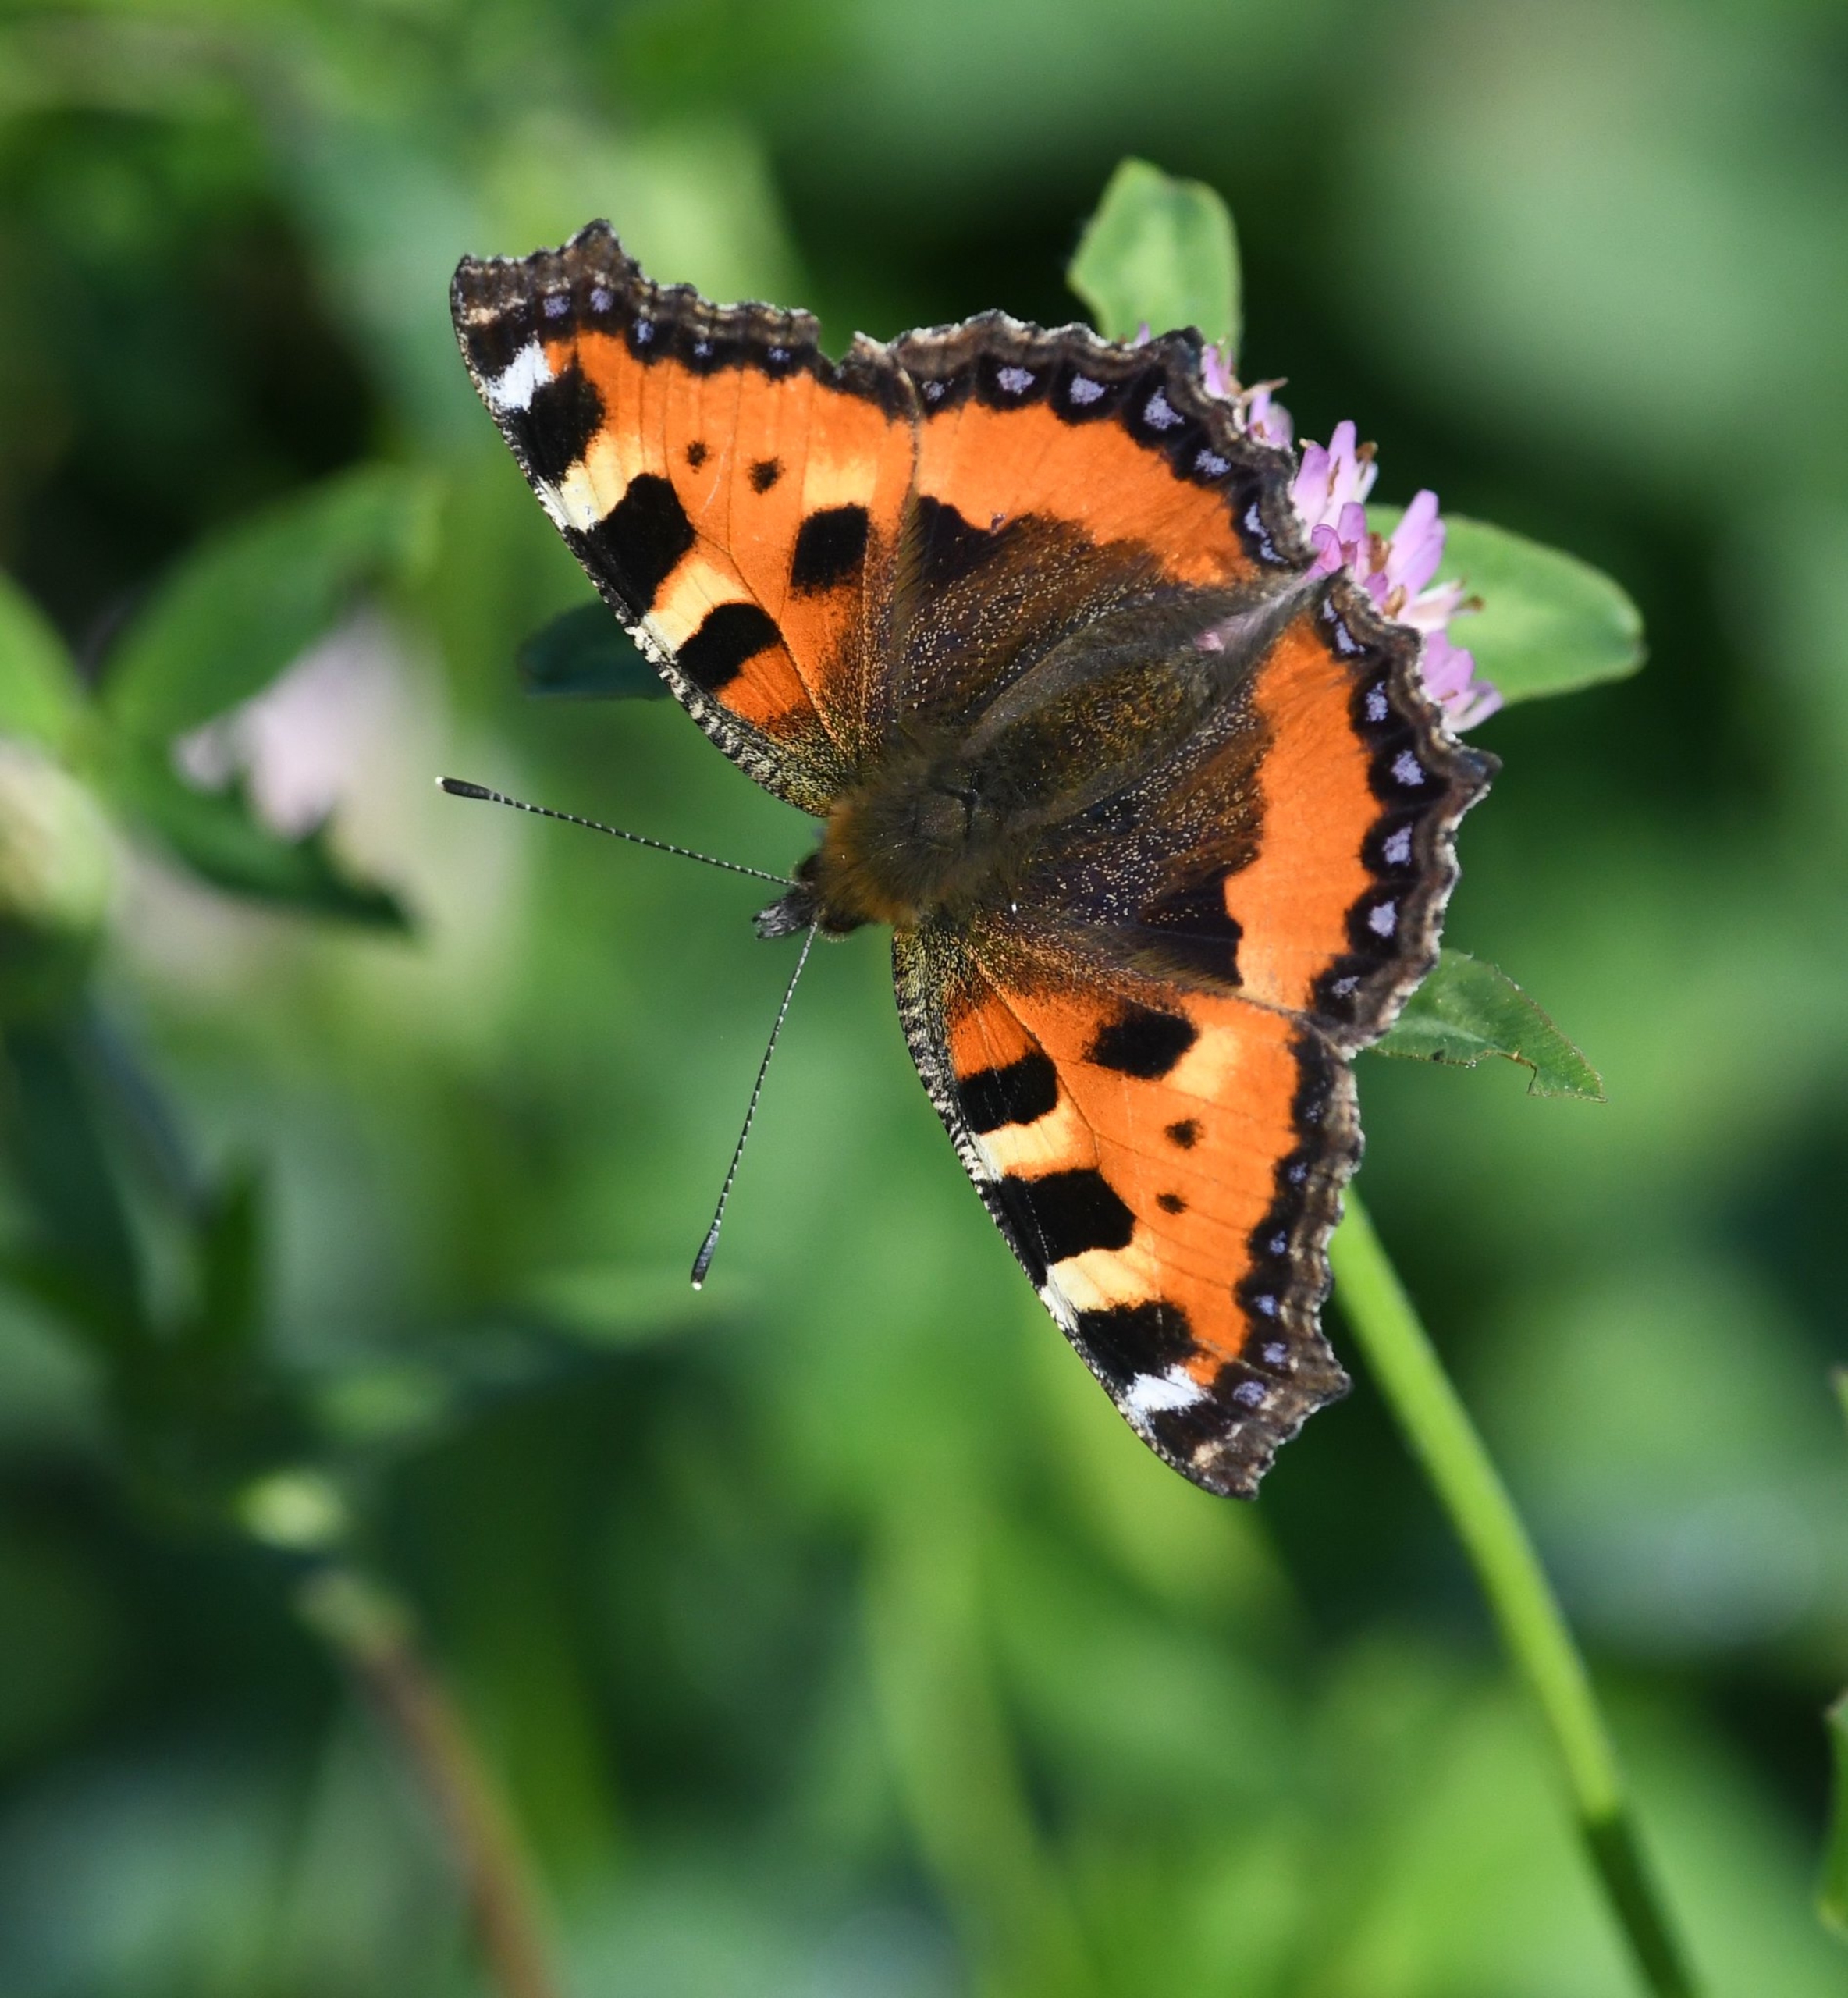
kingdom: Animalia
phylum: Arthropoda
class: Insecta
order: Lepidoptera
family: Nymphalidae
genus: Aglais
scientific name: Aglais urticae
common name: Nældens takvinge
